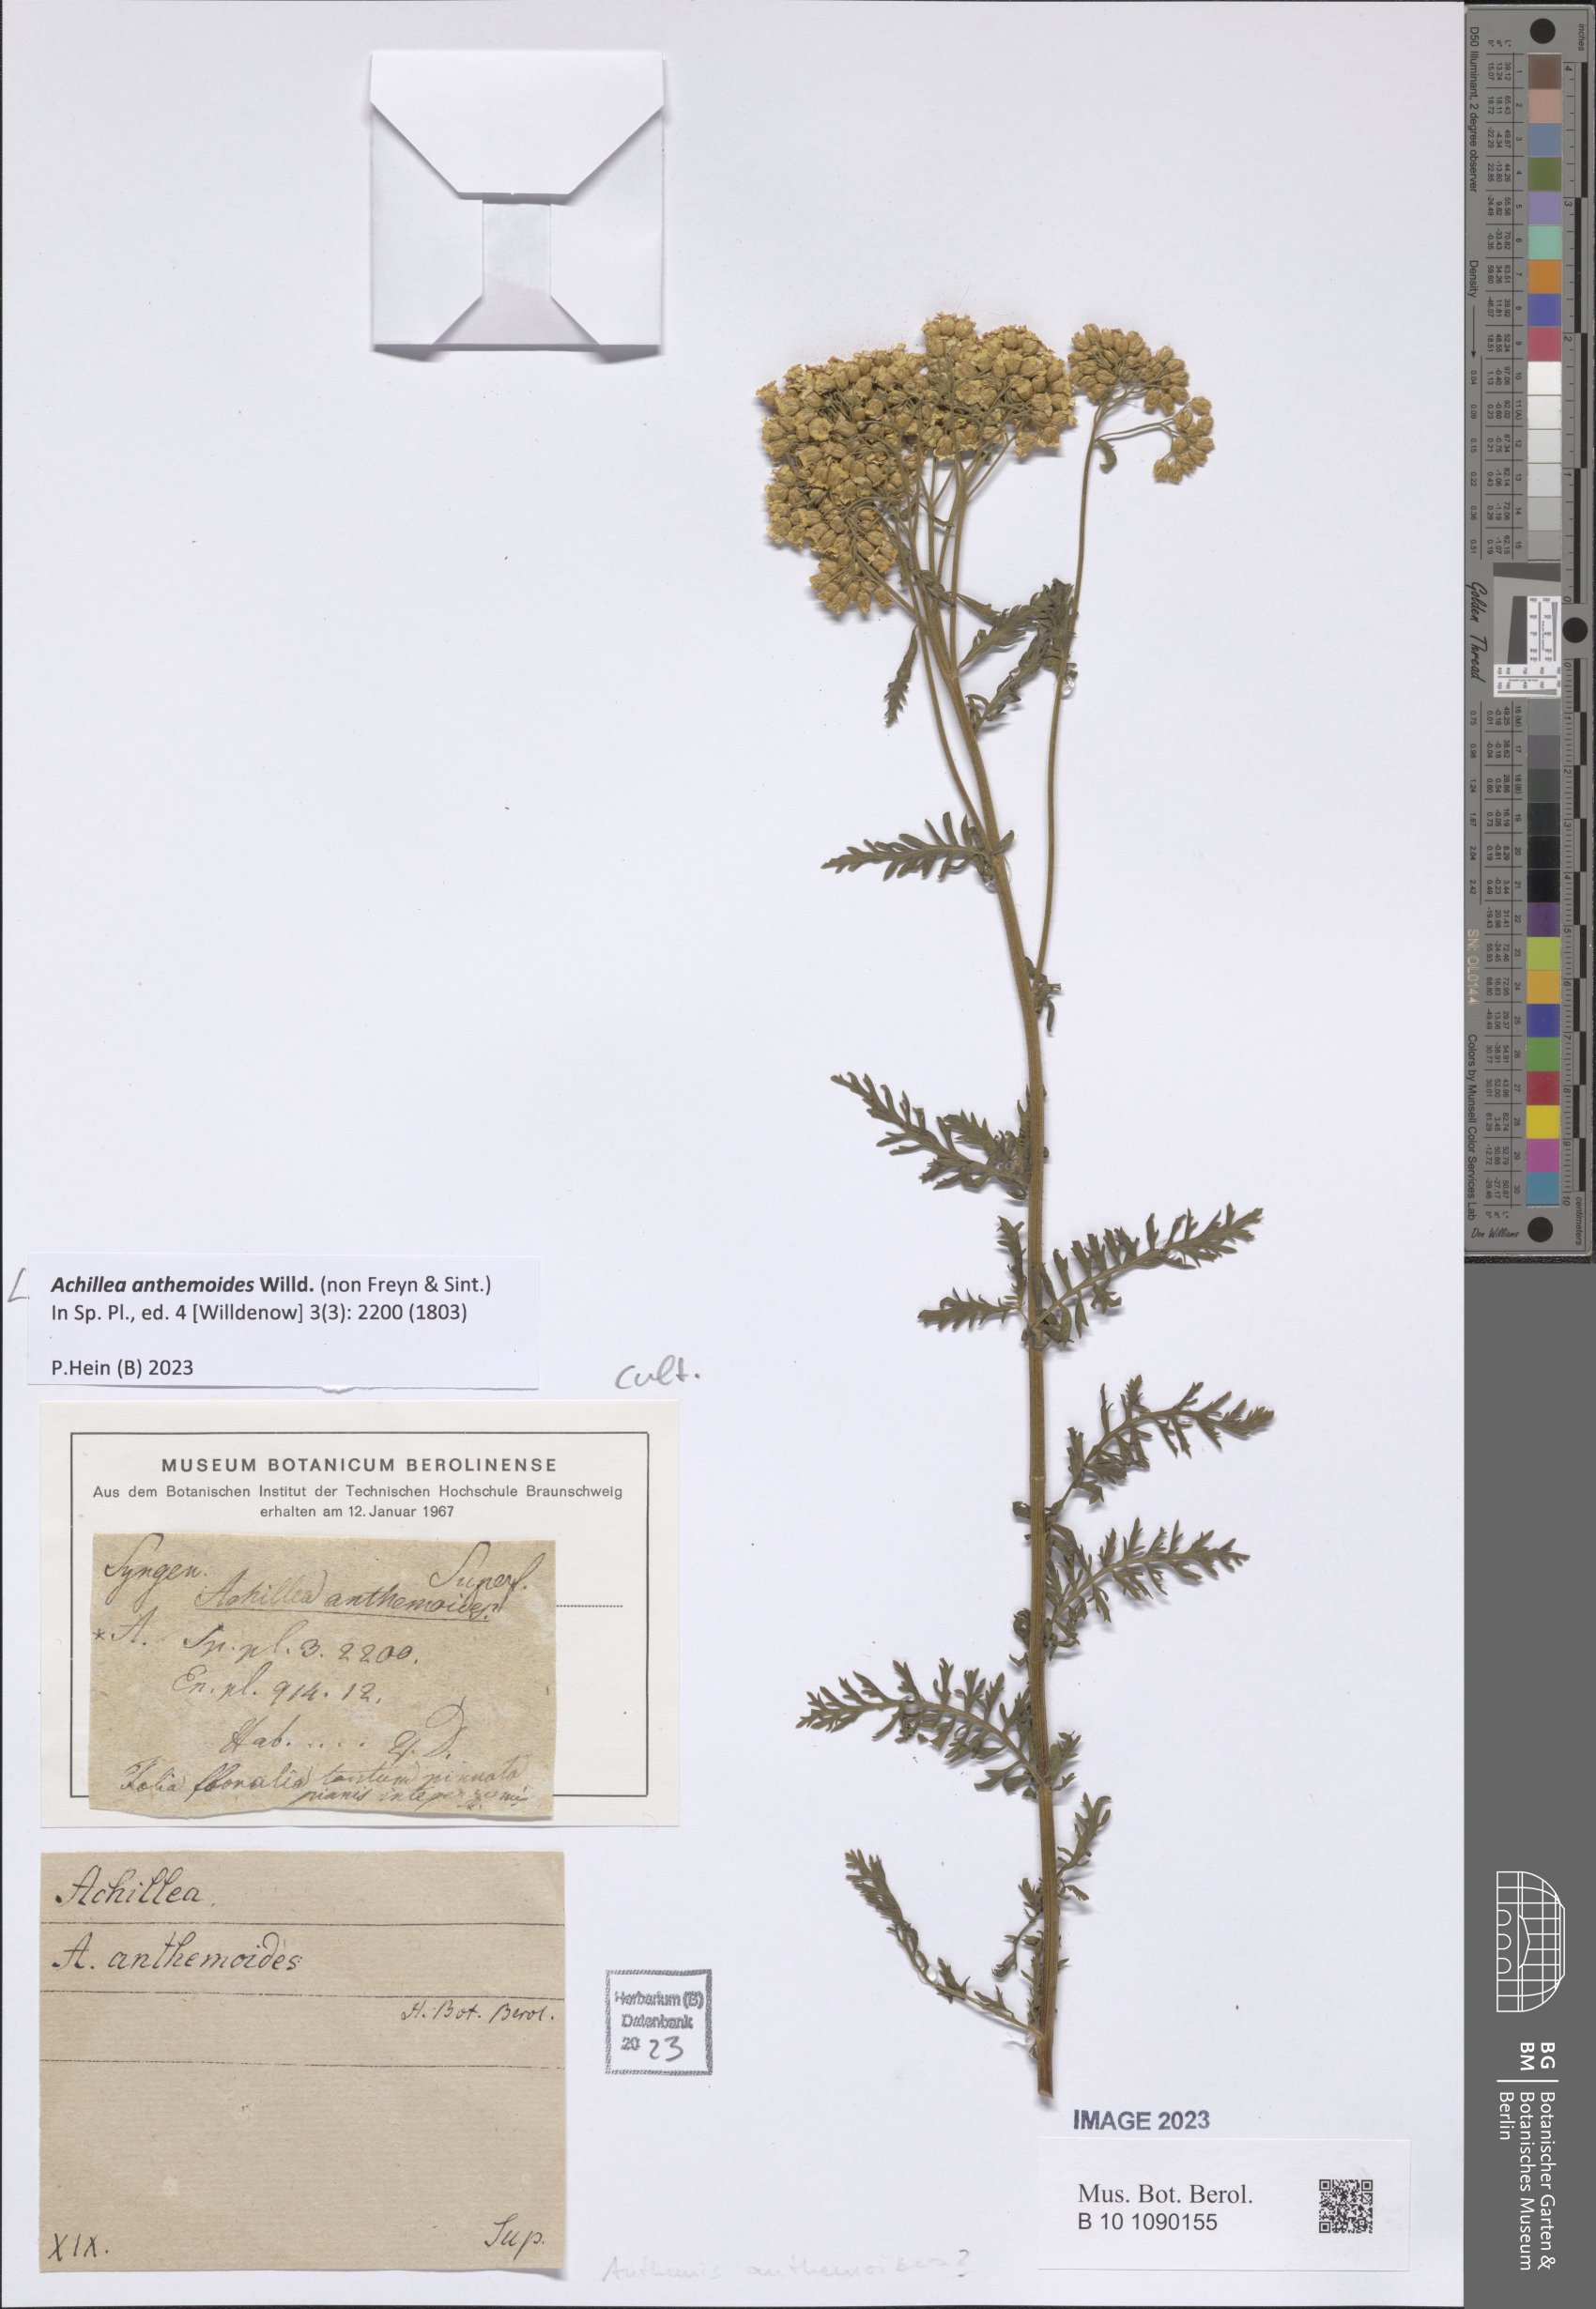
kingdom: Plantae
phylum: Tracheophyta
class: Magnoliopsida
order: Asterales
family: Asteraceae
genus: Achillea
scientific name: Achillea anthemoides
